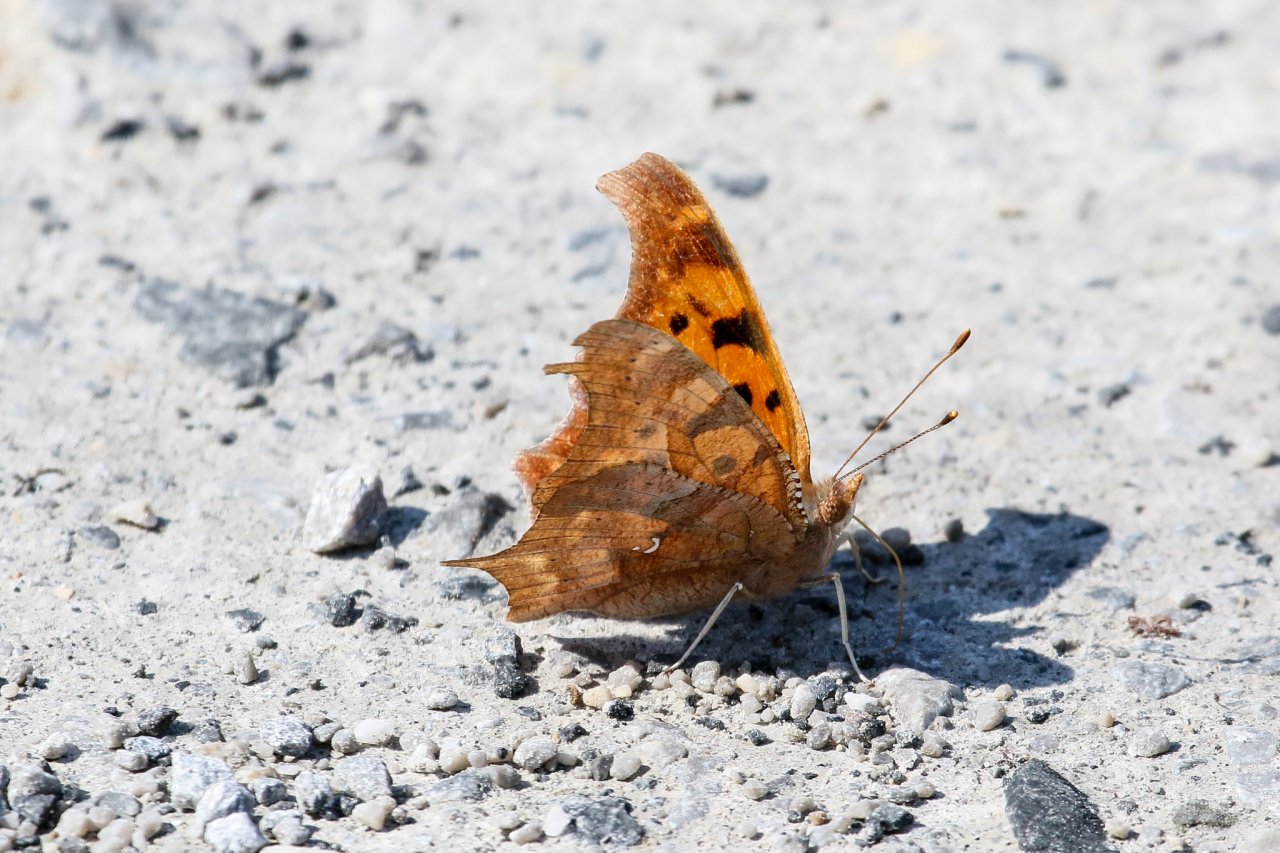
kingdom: Animalia
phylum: Arthropoda
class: Insecta
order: Lepidoptera
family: Nymphalidae
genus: Polygonia
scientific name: Polygonia interrogationis
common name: Question Mark
